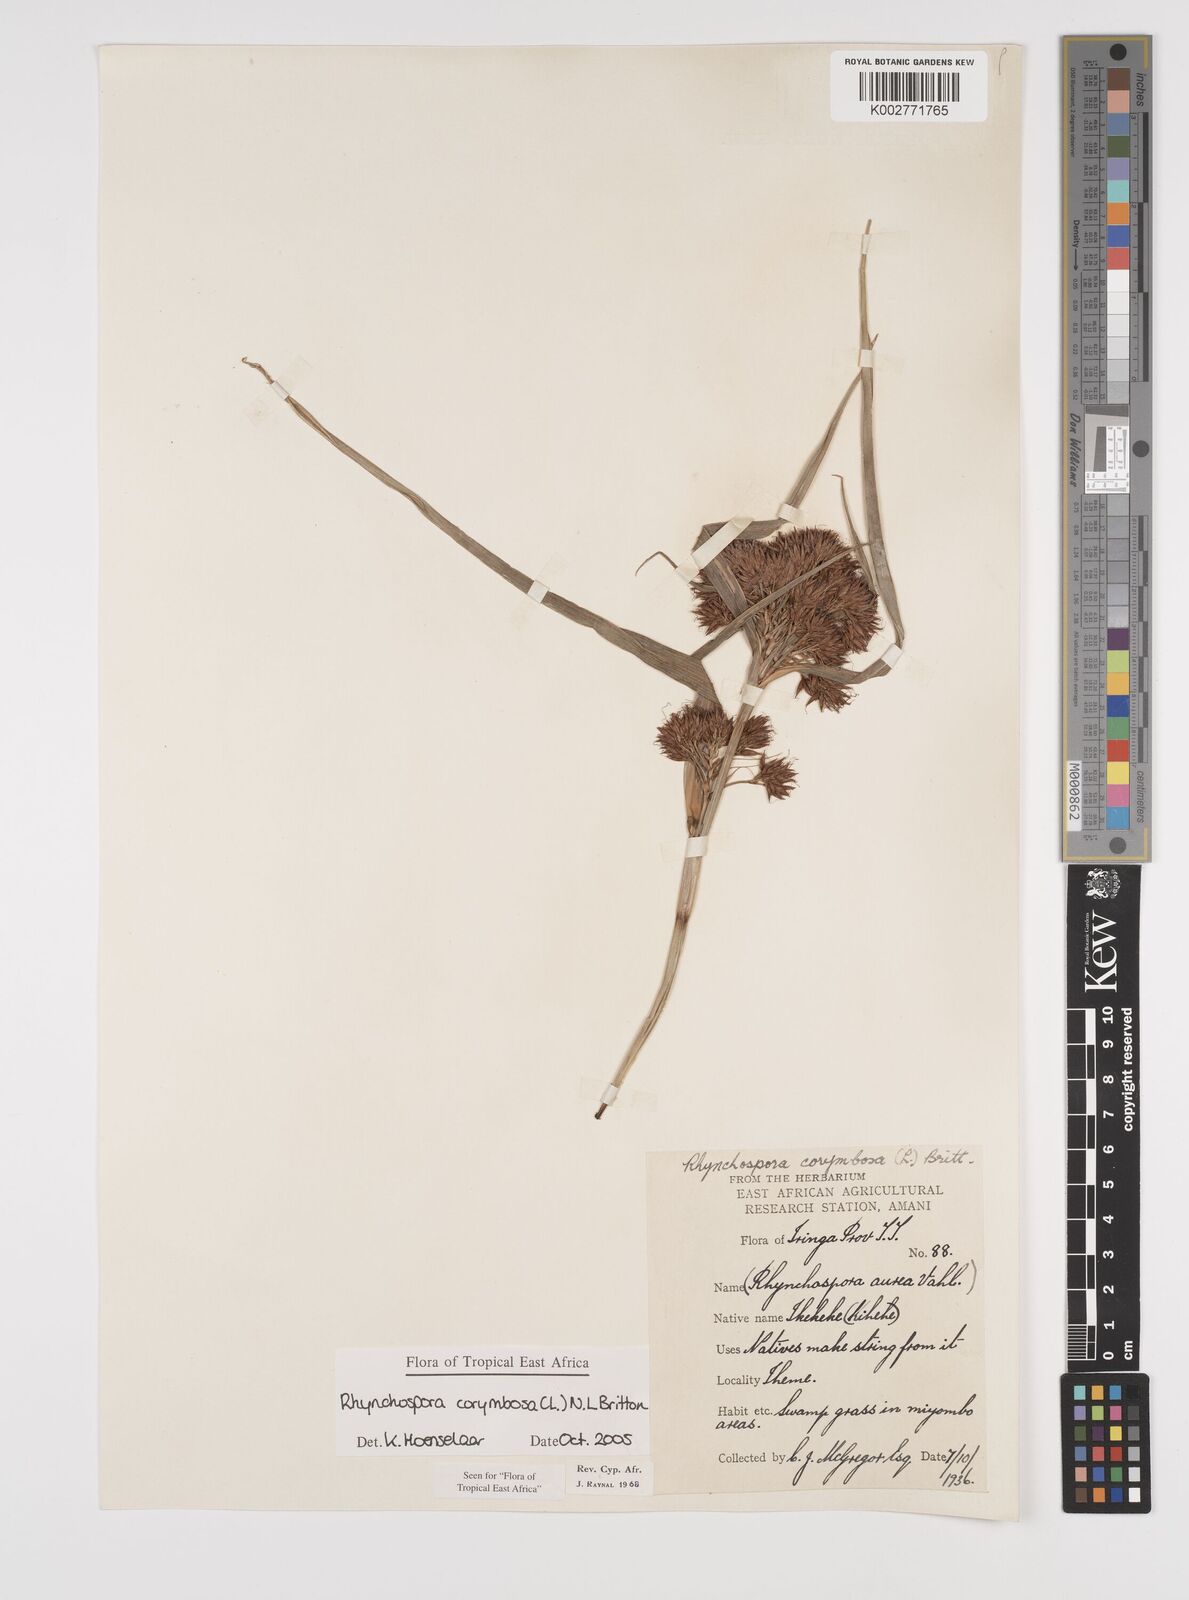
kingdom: Plantae
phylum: Tracheophyta
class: Liliopsida
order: Poales
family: Cyperaceae
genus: Rhynchospora
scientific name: Rhynchospora corymbosa
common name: Golden beak sedge
